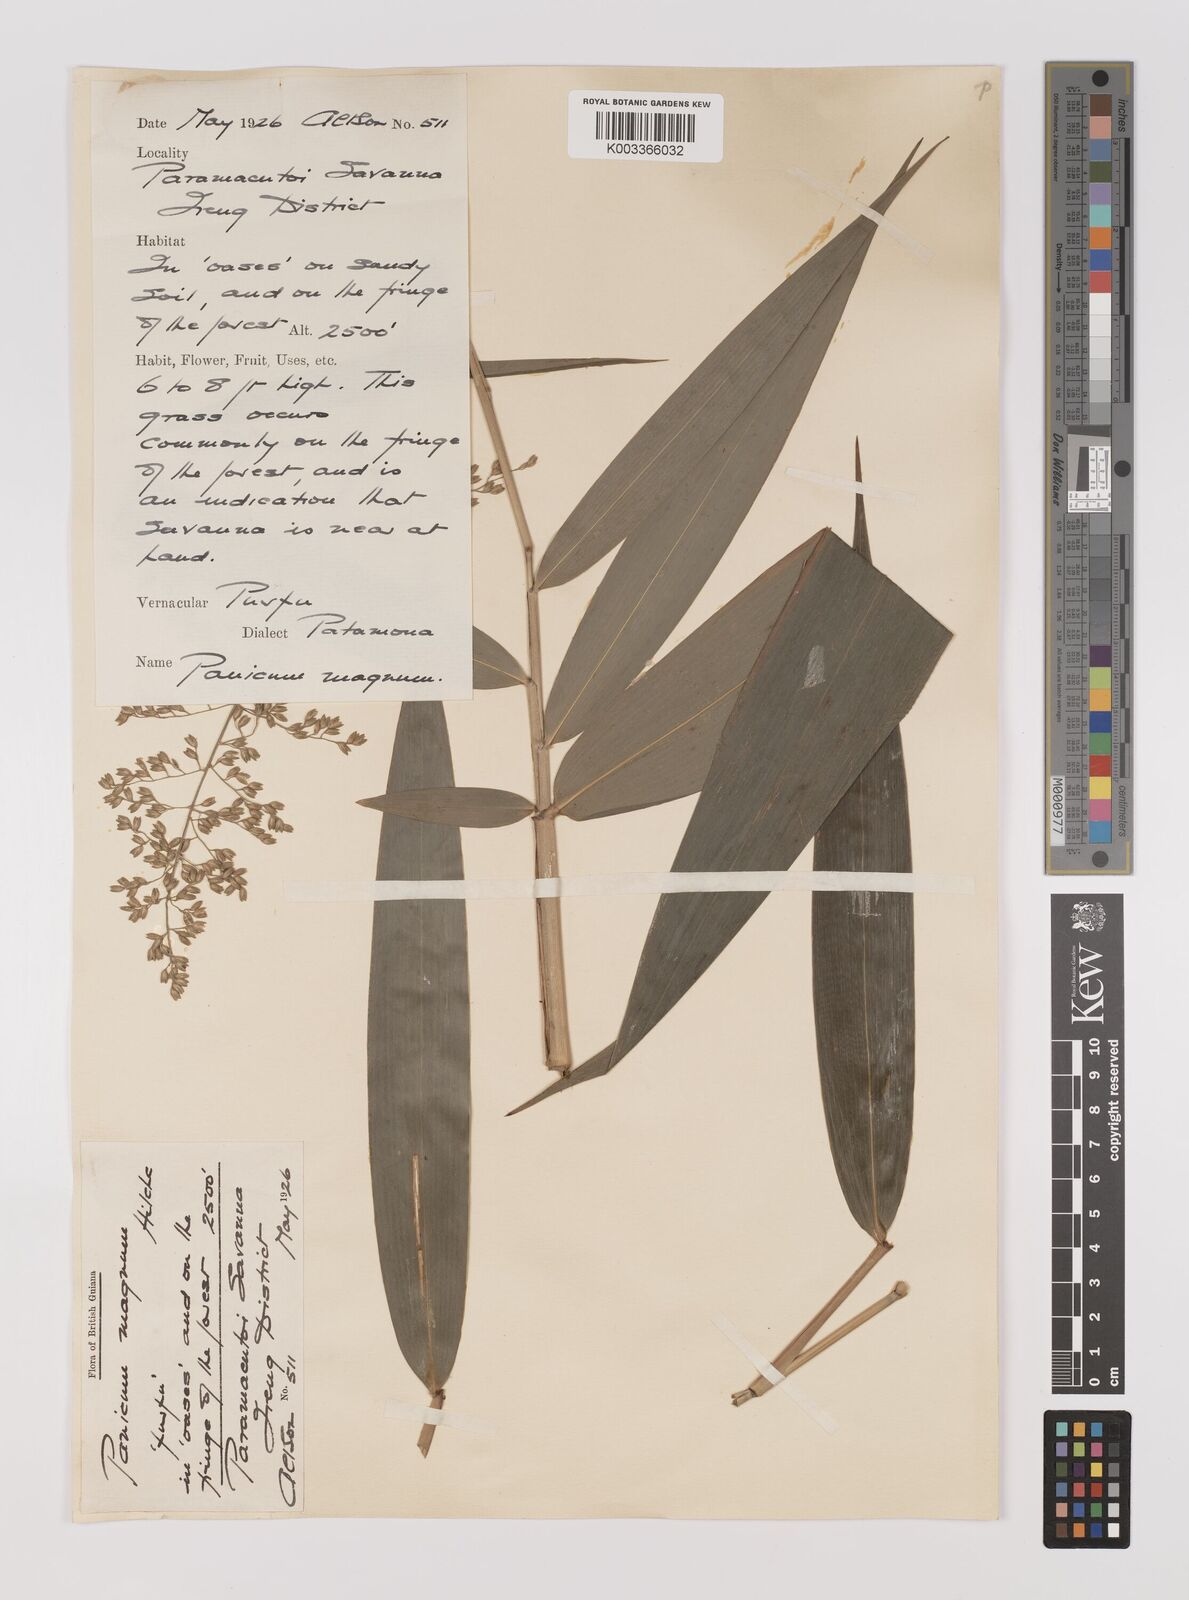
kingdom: Plantae
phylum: Tracheophyta
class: Liliopsida
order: Poales
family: Poaceae
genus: Ichnanthus
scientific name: Ichnanthus breviscrobs
